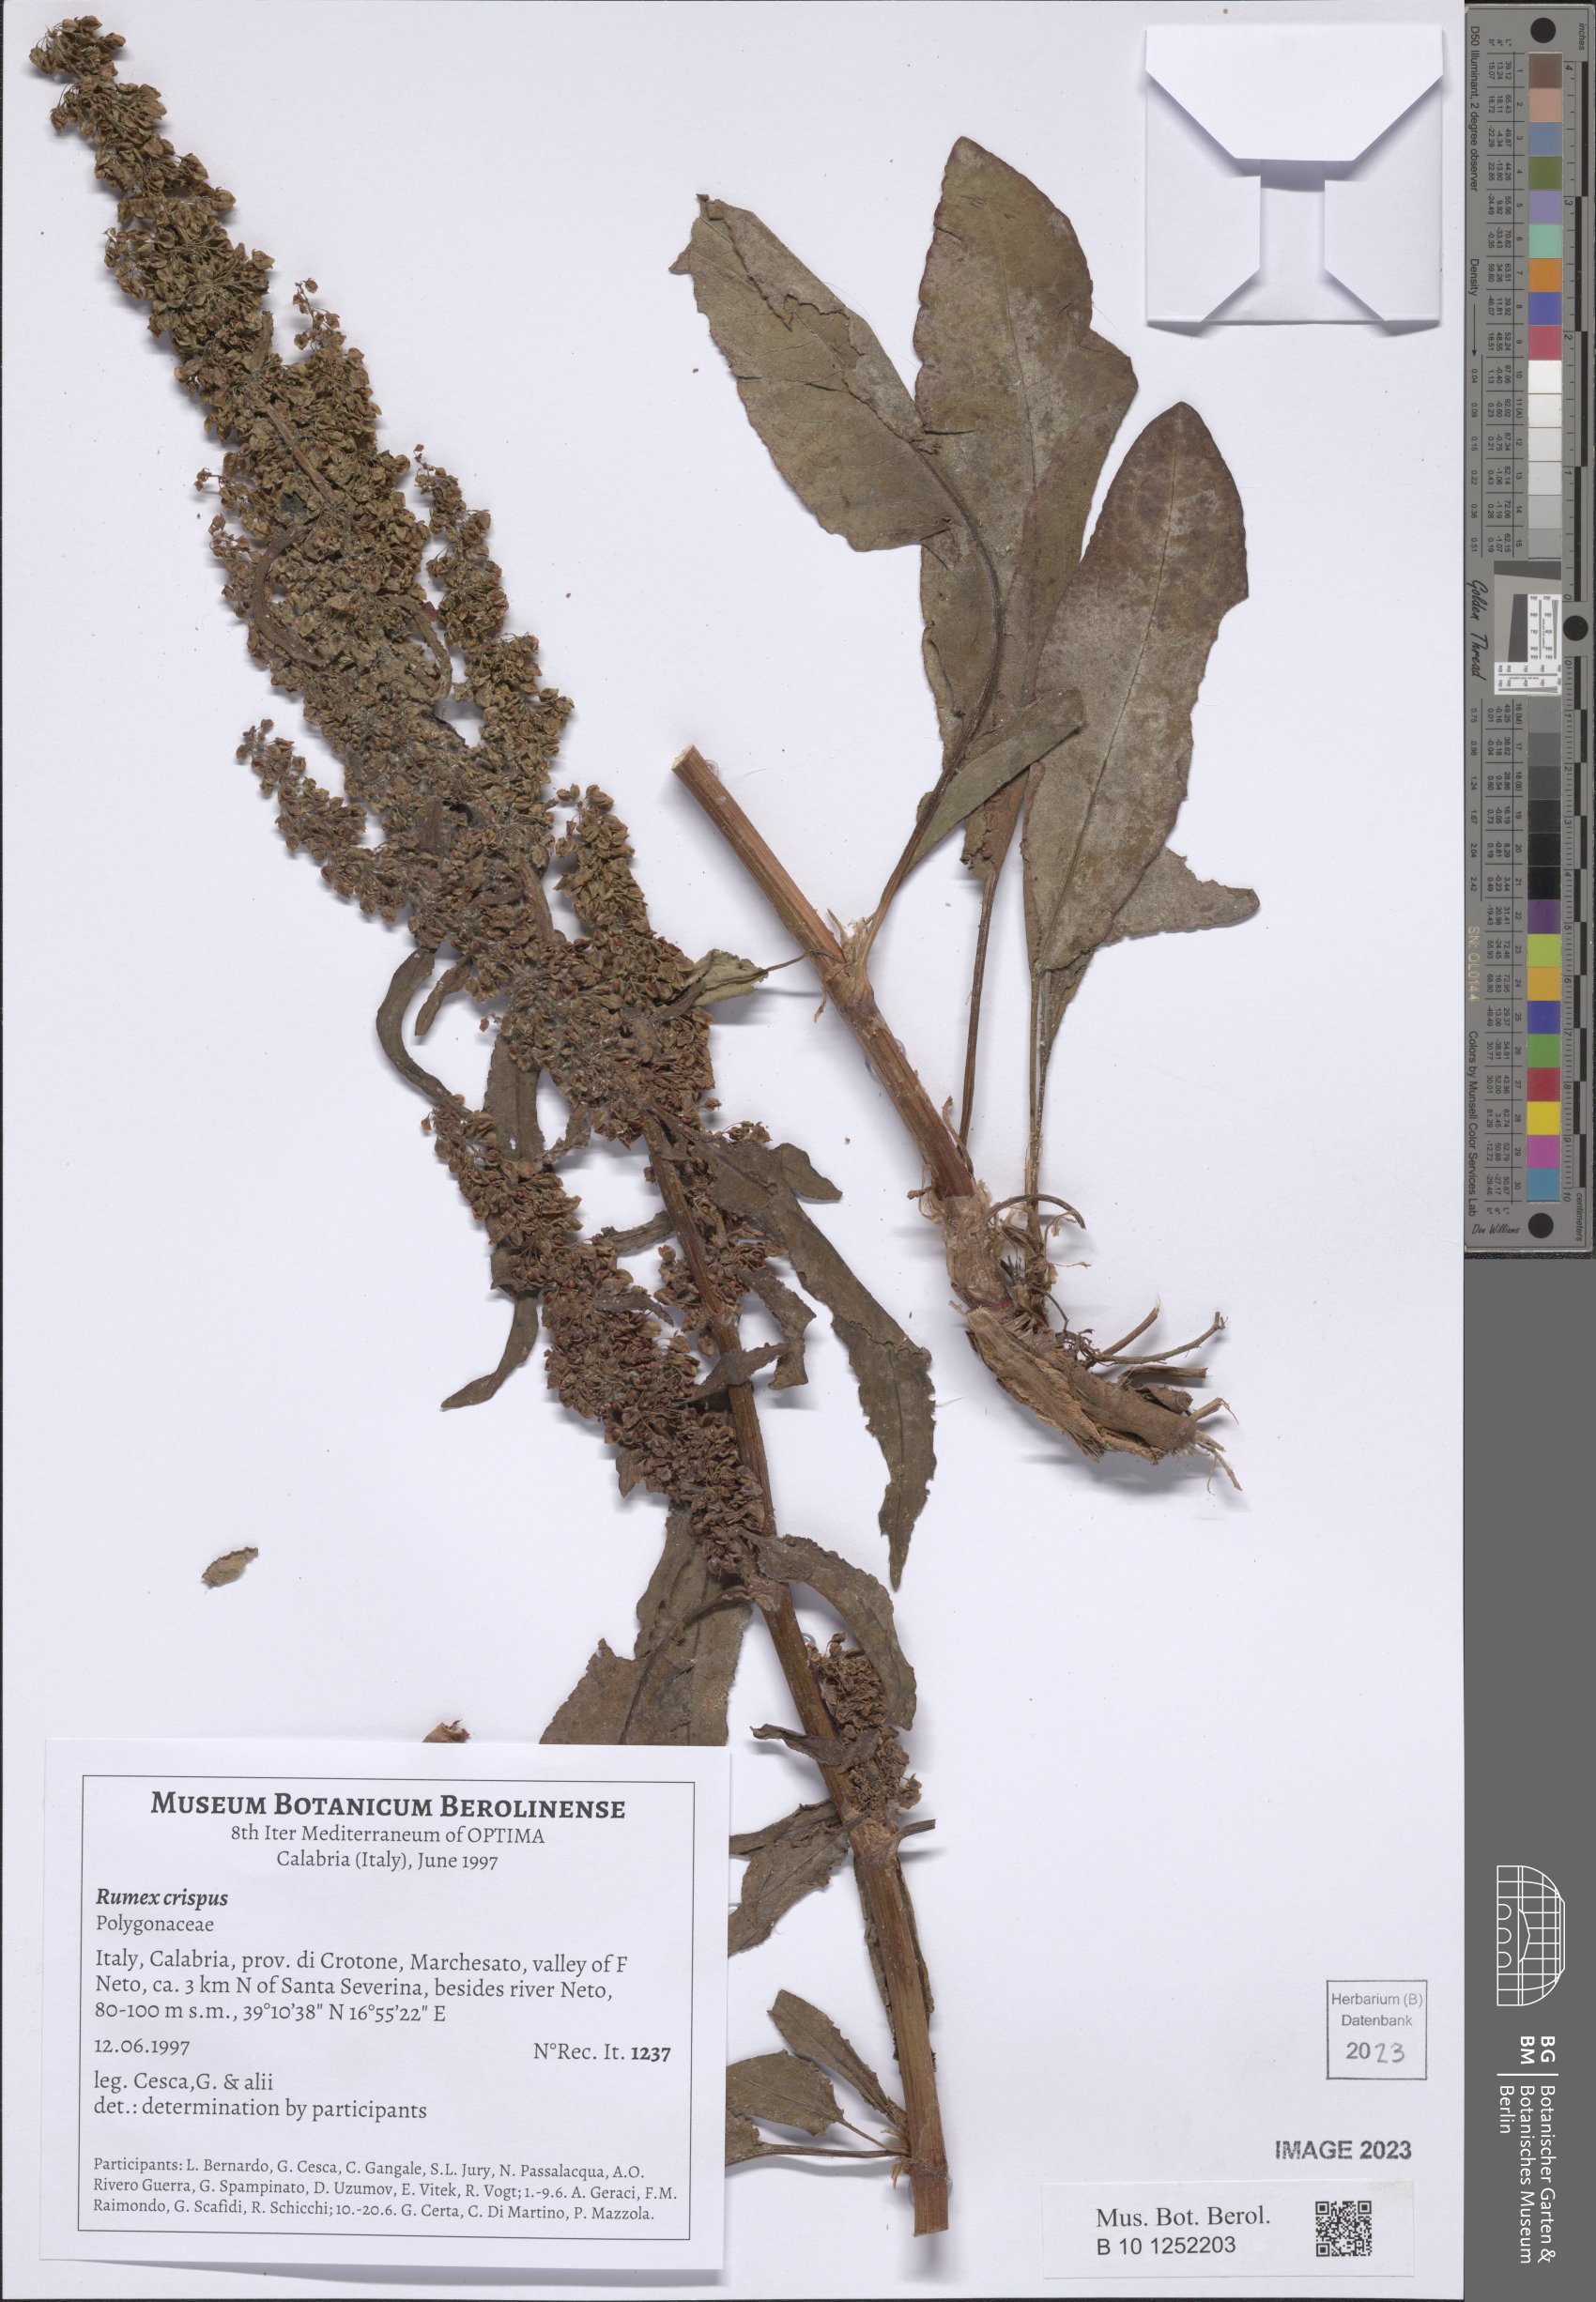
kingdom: Plantae
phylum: Tracheophyta
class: Magnoliopsida
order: Caryophyllales
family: Polygonaceae
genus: Rumex
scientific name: Rumex crispus
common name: Curled dock
